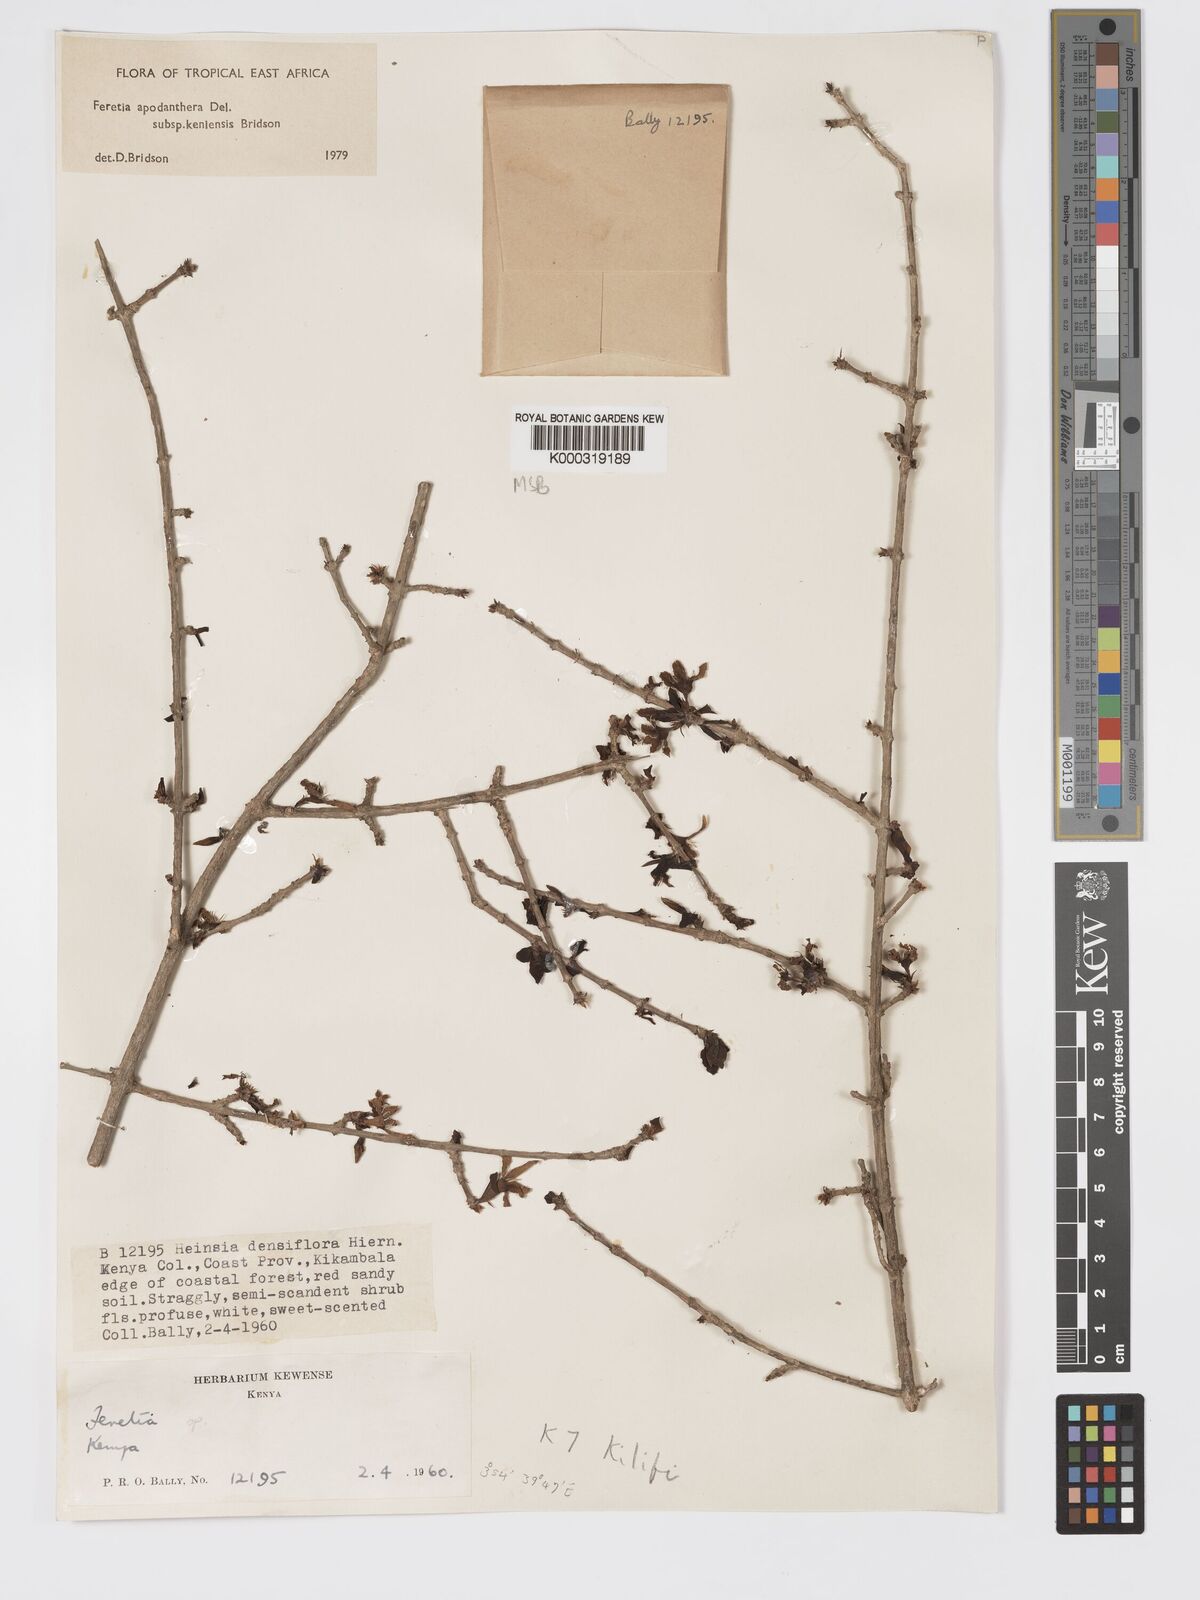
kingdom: Plantae
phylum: Tracheophyta
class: Magnoliopsida
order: Gentianales
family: Rubiaceae
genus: Feretia
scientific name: Feretia apodanthera
